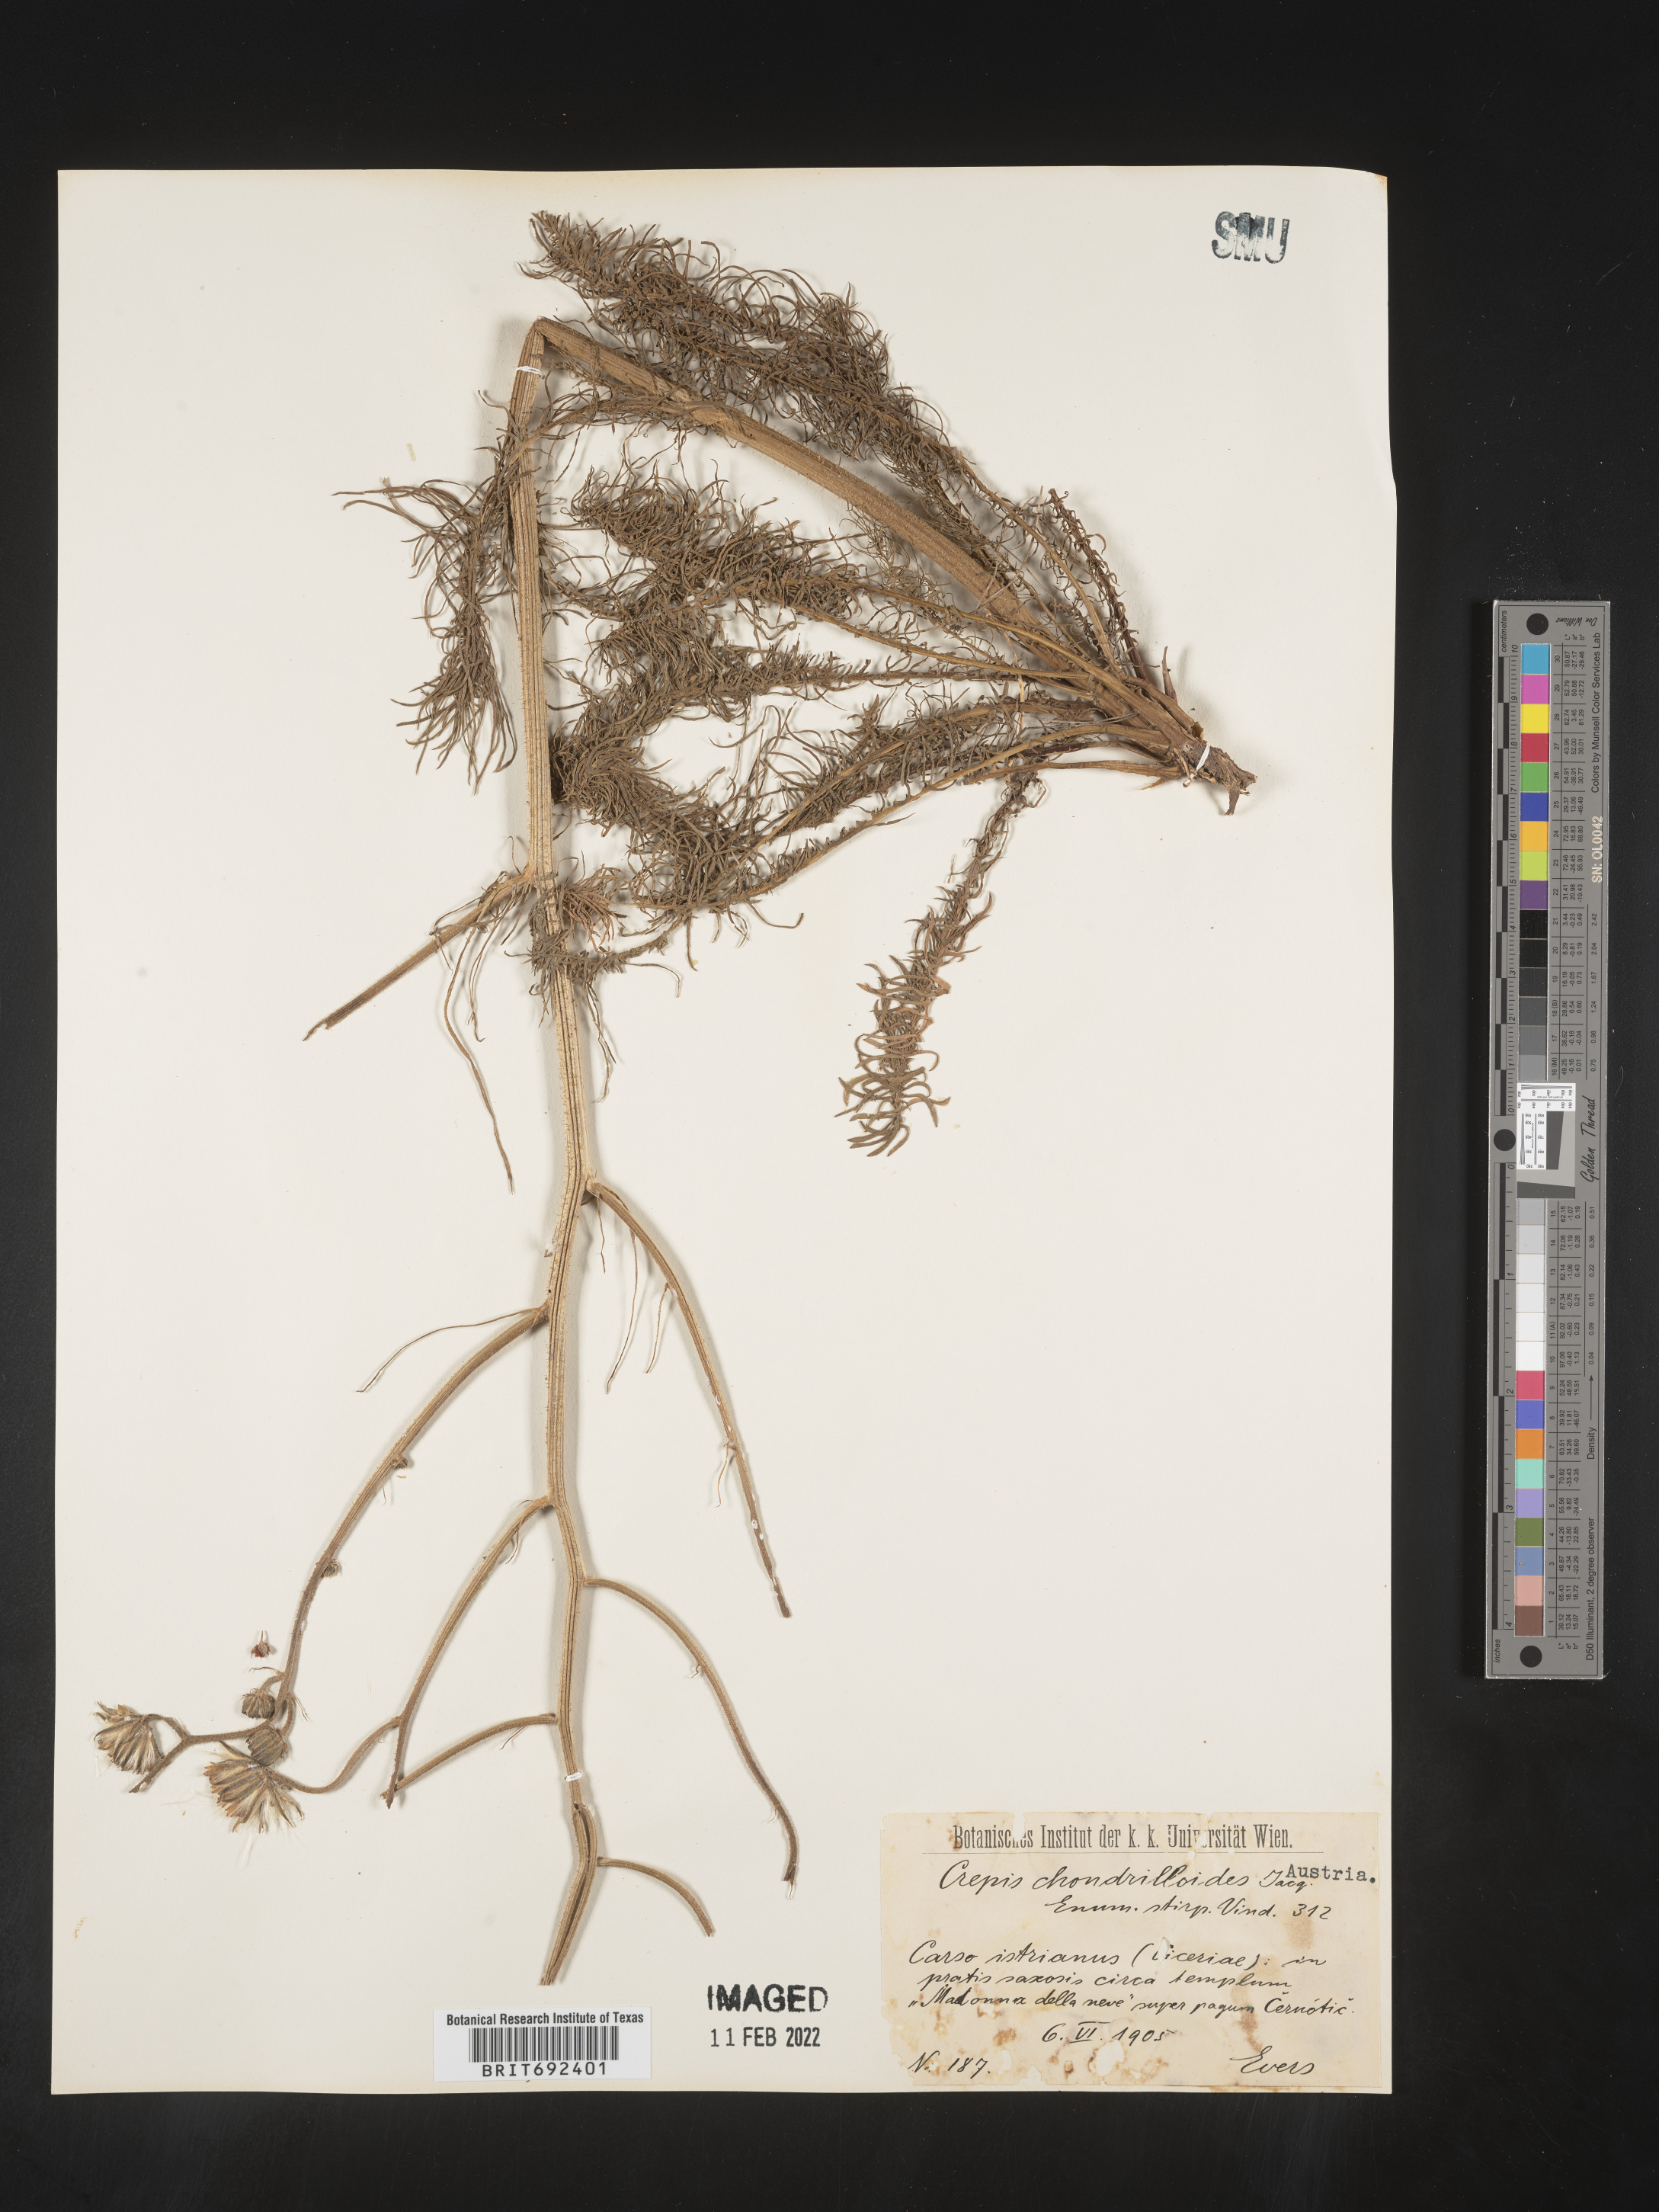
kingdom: Plantae
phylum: Tracheophyta
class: Magnoliopsida
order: Asterales
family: Asteraceae
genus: Crepis
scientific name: Crepis
